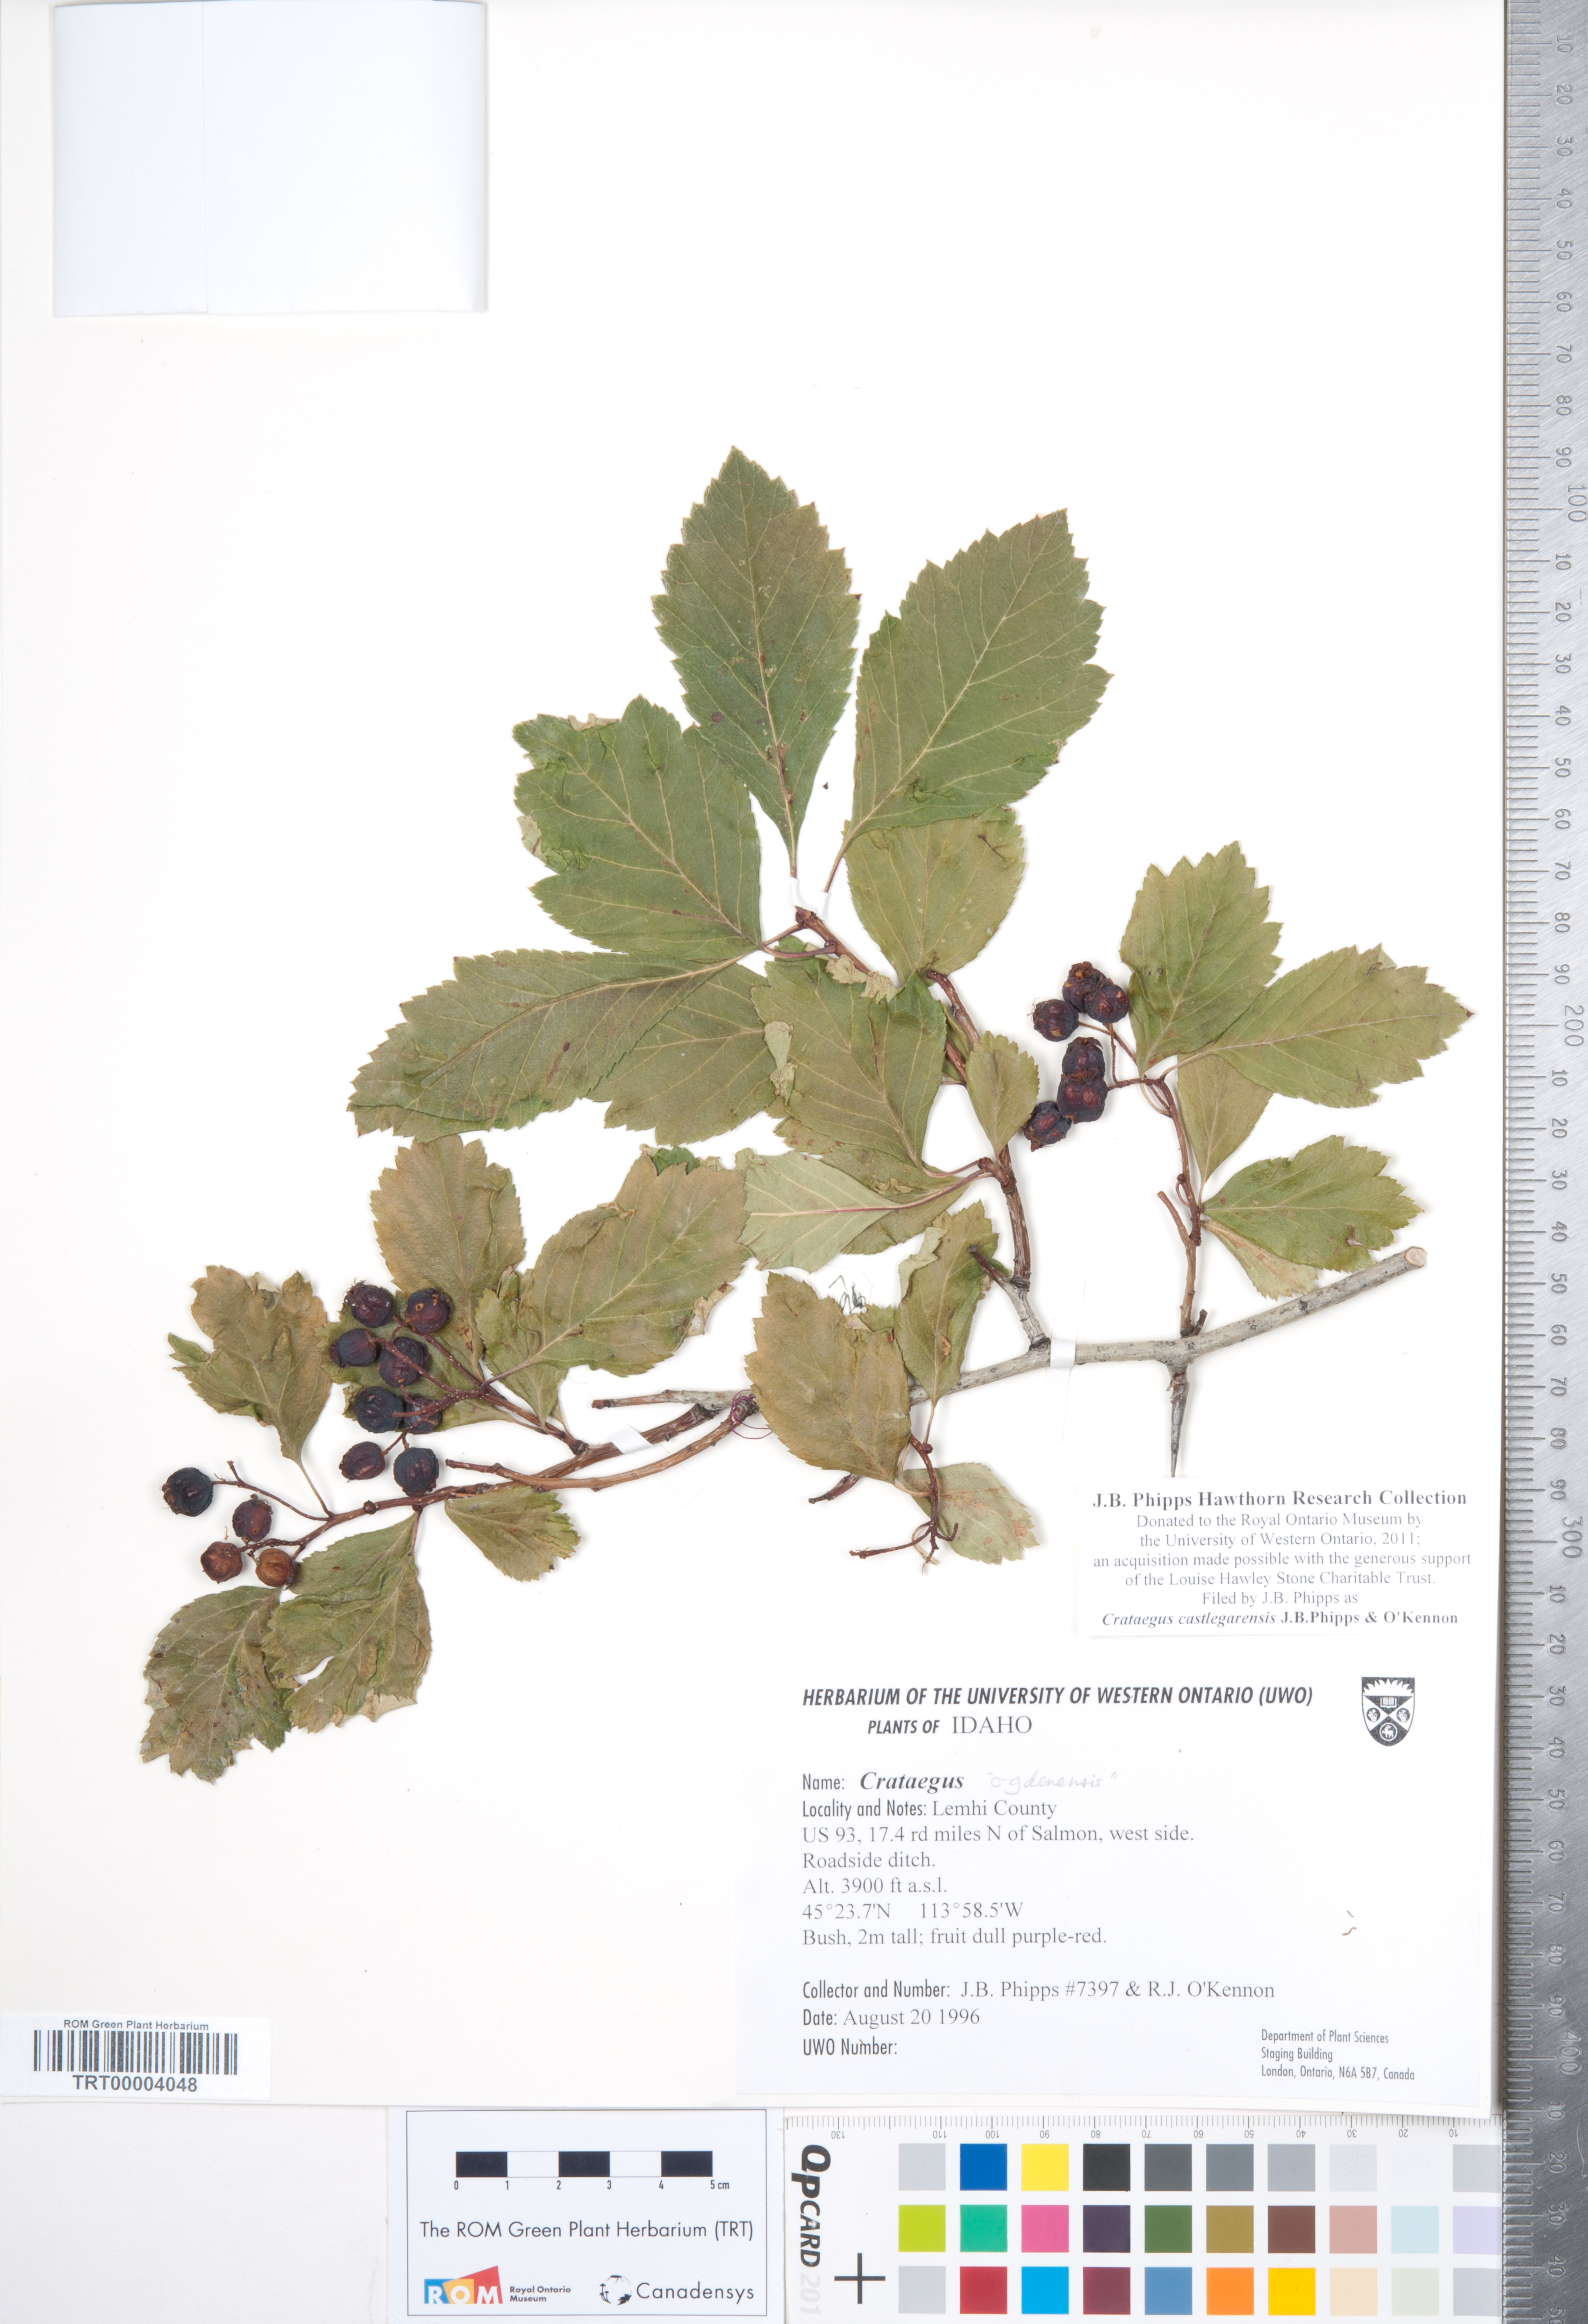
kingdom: Plantae
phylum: Tracheophyta
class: Magnoliopsida
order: Rosales
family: Rosaceae
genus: Crataegus
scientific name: Crataegus castlegarensis
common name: Castlegar hawthorn
